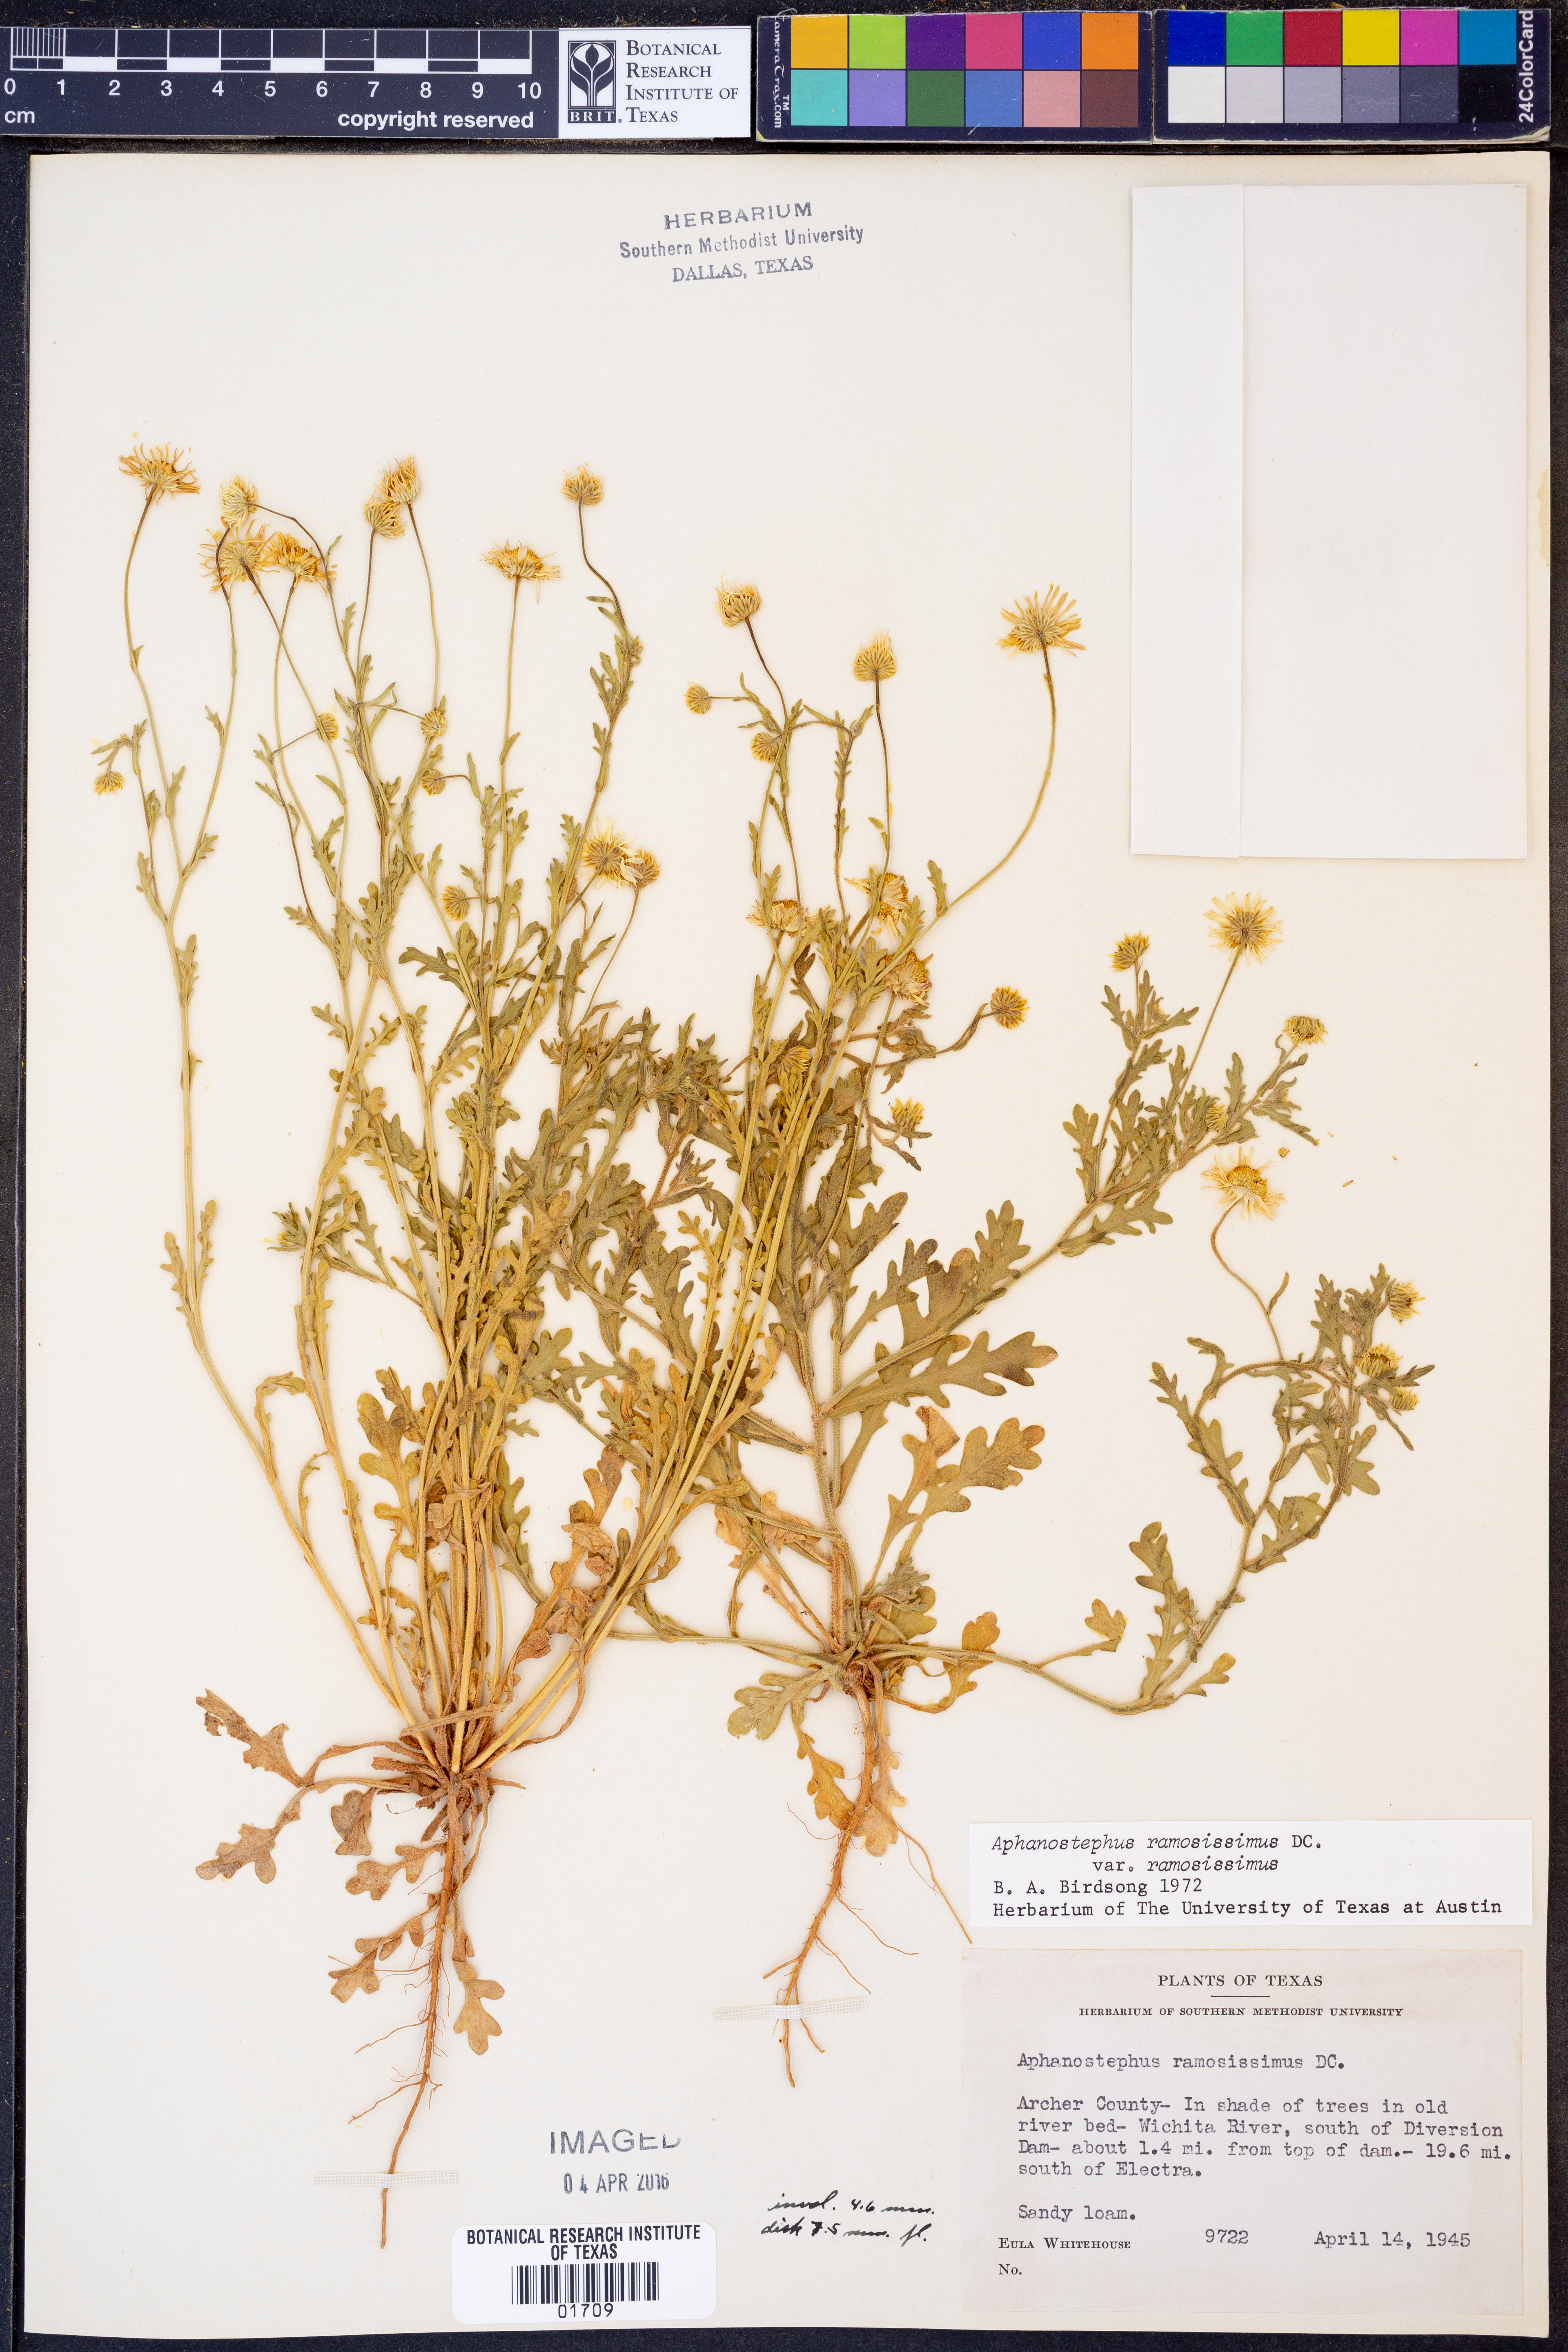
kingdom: Plantae
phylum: Tracheophyta
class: Magnoliopsida
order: Asterales
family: Asteraceae
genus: Aphanostephus
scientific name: Aphanostephus ramosissimus
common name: Plains lazy daisy
